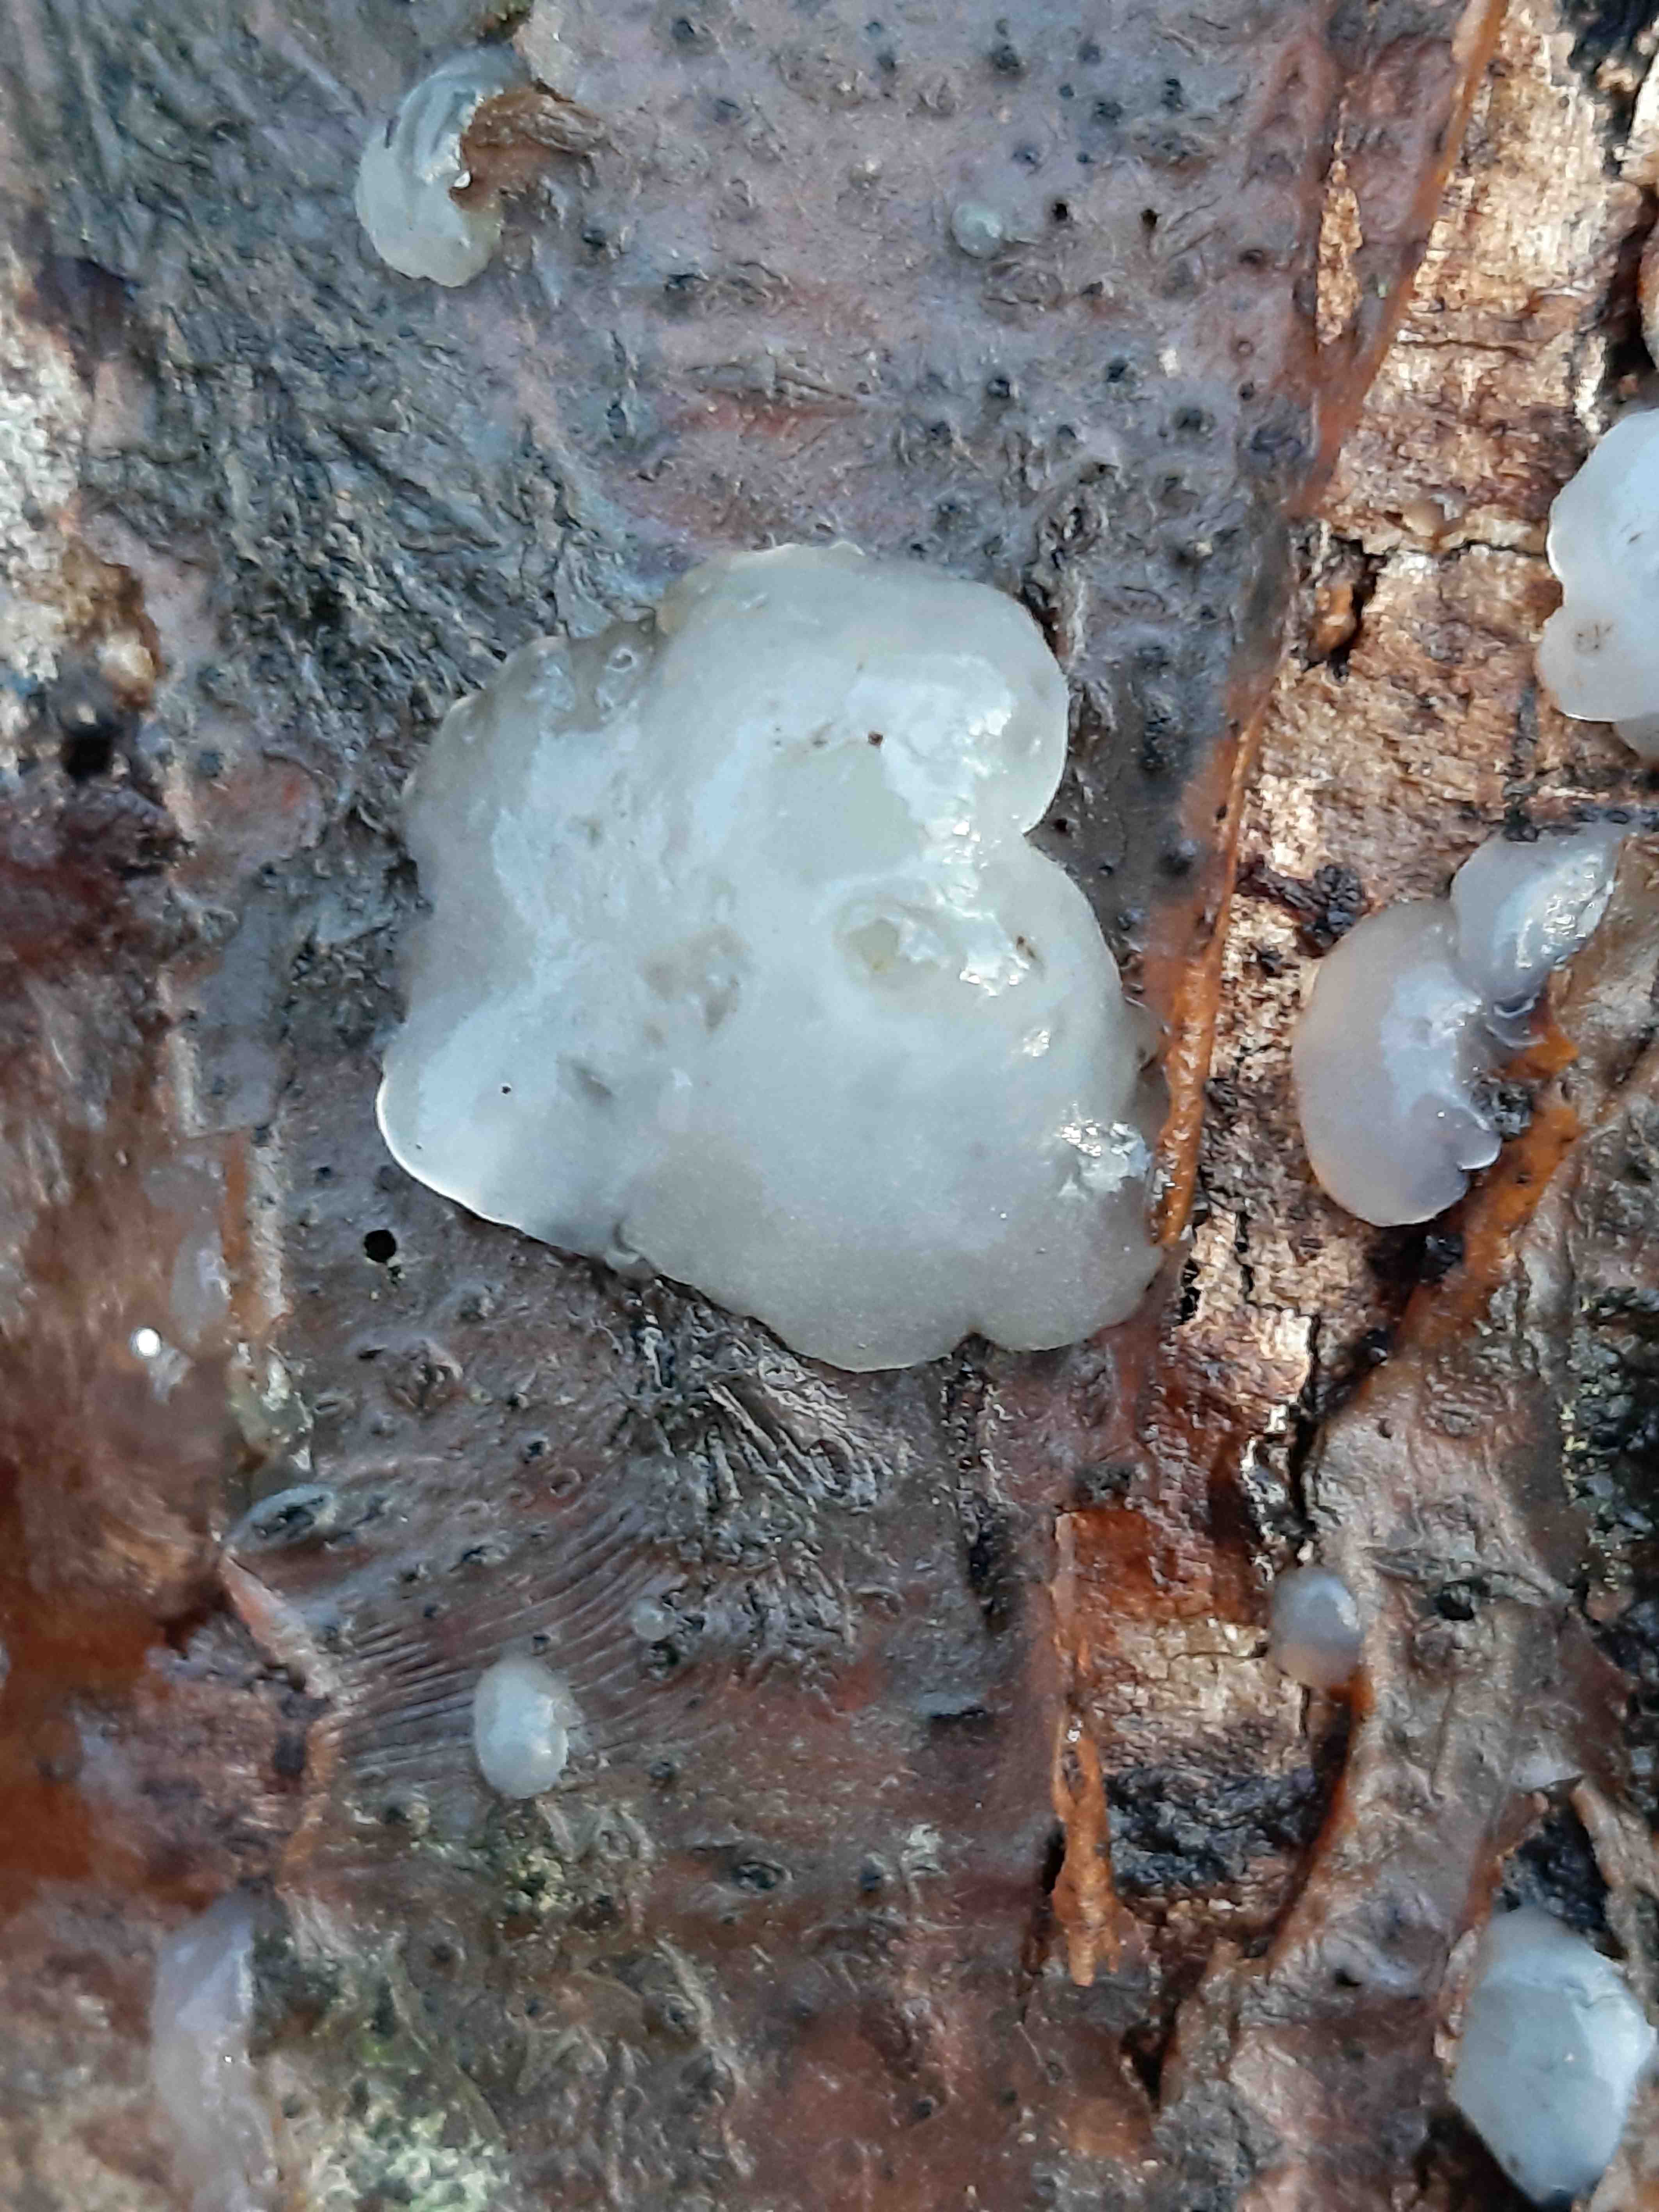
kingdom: Fungi
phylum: Basidiomycota
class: Agaricomycetes
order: Auriculariales
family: Hyaloriaceae
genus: Myxarium
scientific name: Myxarium nucleatum
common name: klar bævretop
